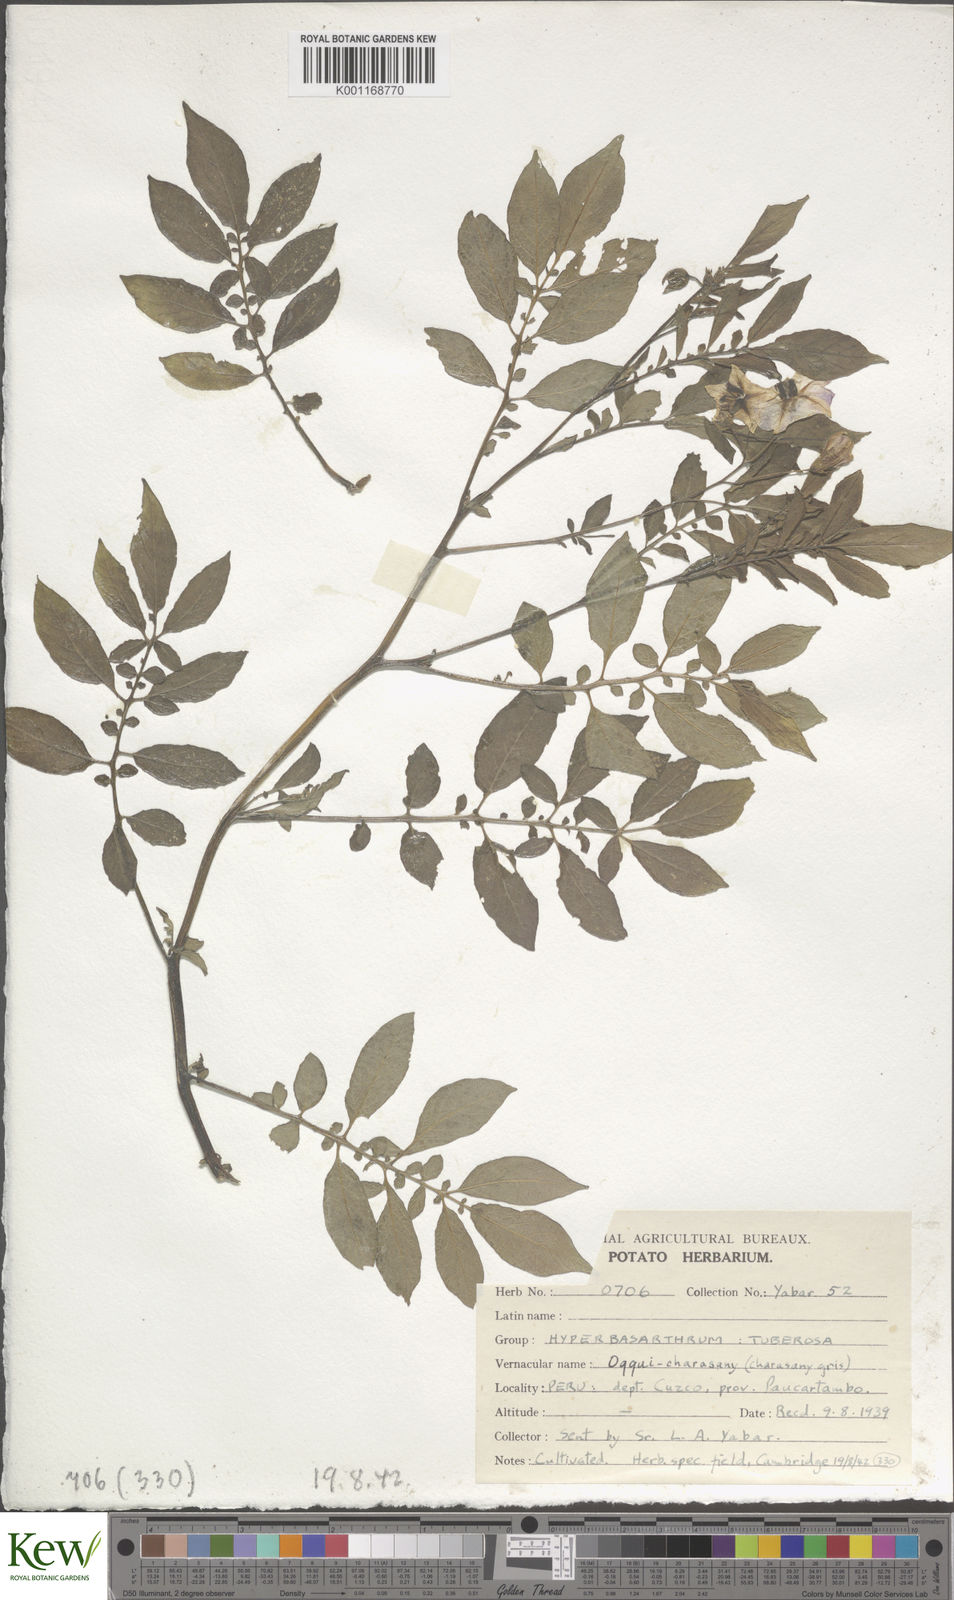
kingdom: Plantae
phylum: Tracheophyta
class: Magnoliopsida
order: Solanales
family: Solanaceae
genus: Solanum
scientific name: Solanum chaucha
